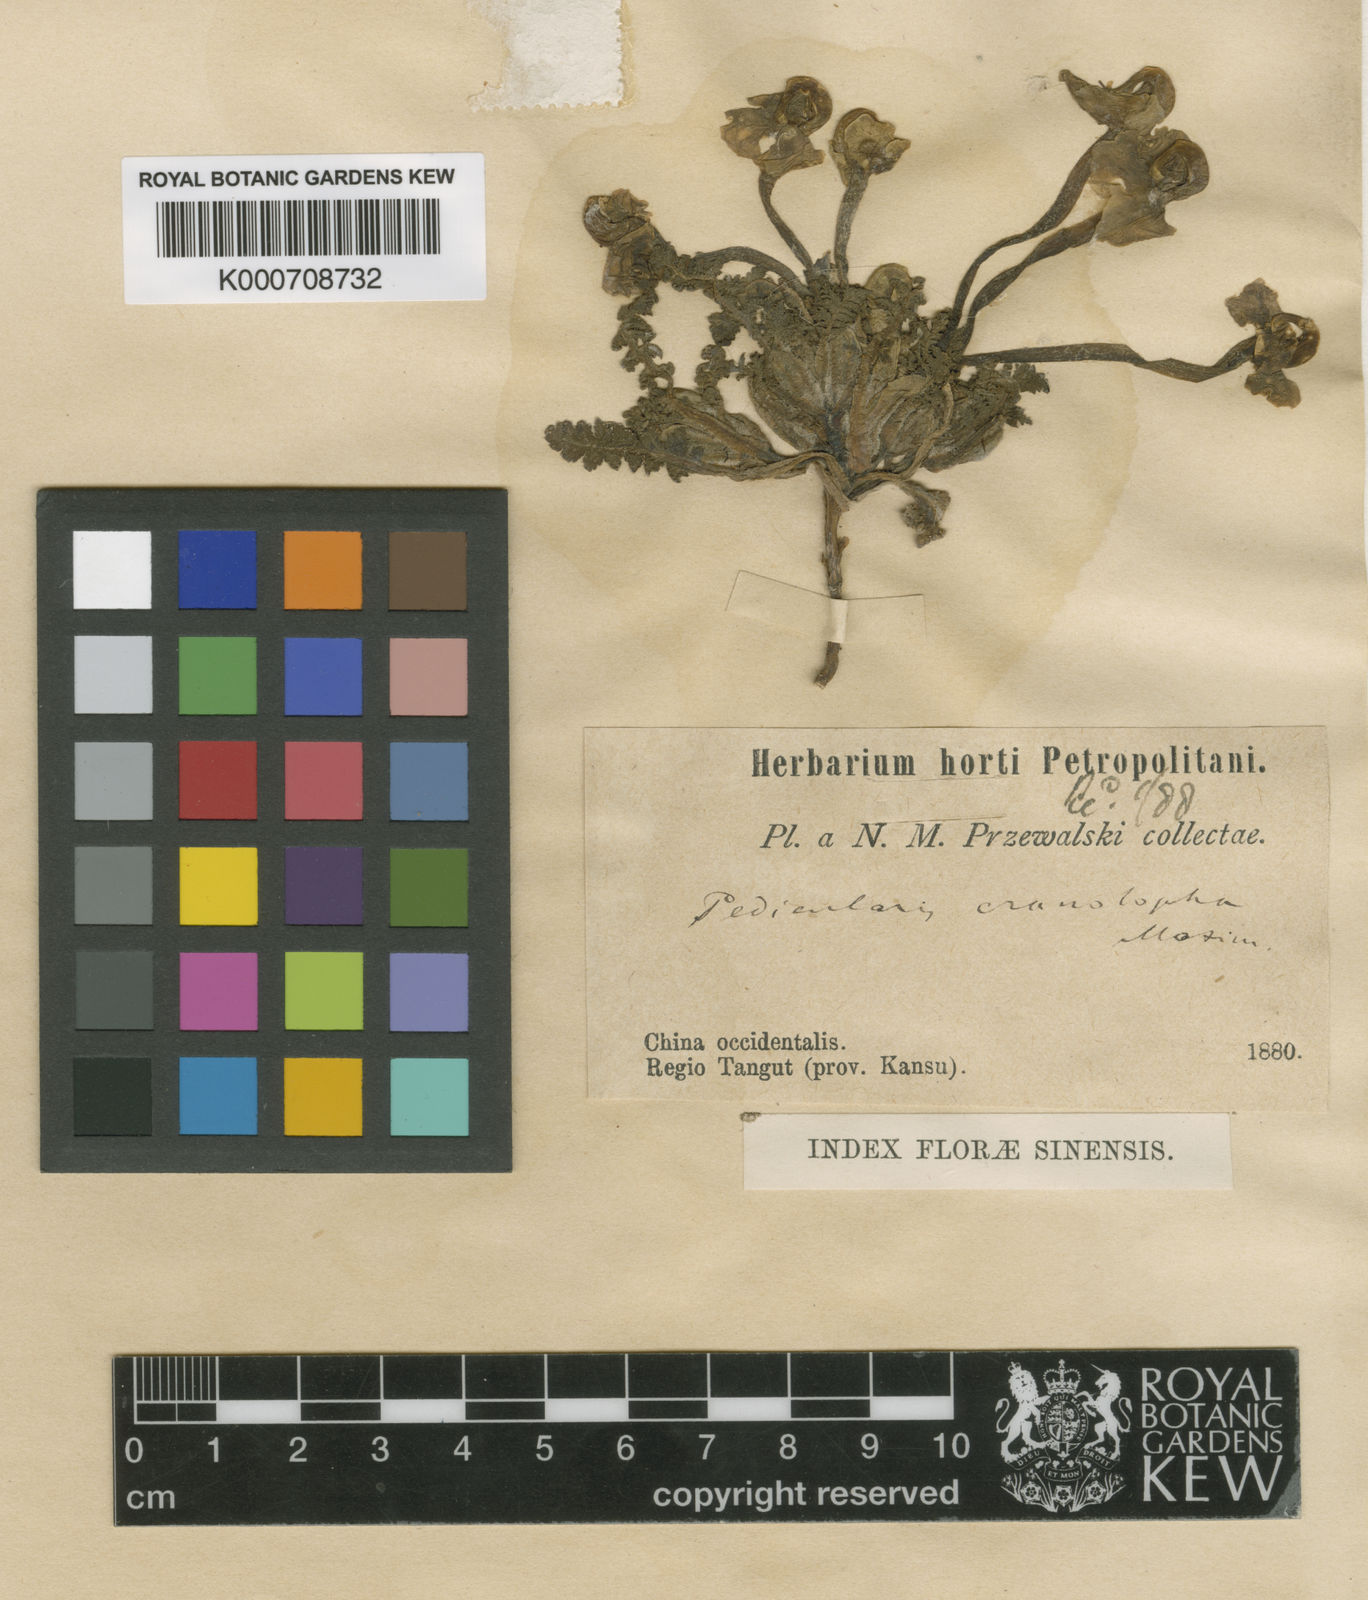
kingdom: Plantae
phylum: Tracheophyta
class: Magnoliopsida
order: Lamiales
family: Orobanchaceae
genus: Pedicularis
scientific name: Pedicularis cranolopha
